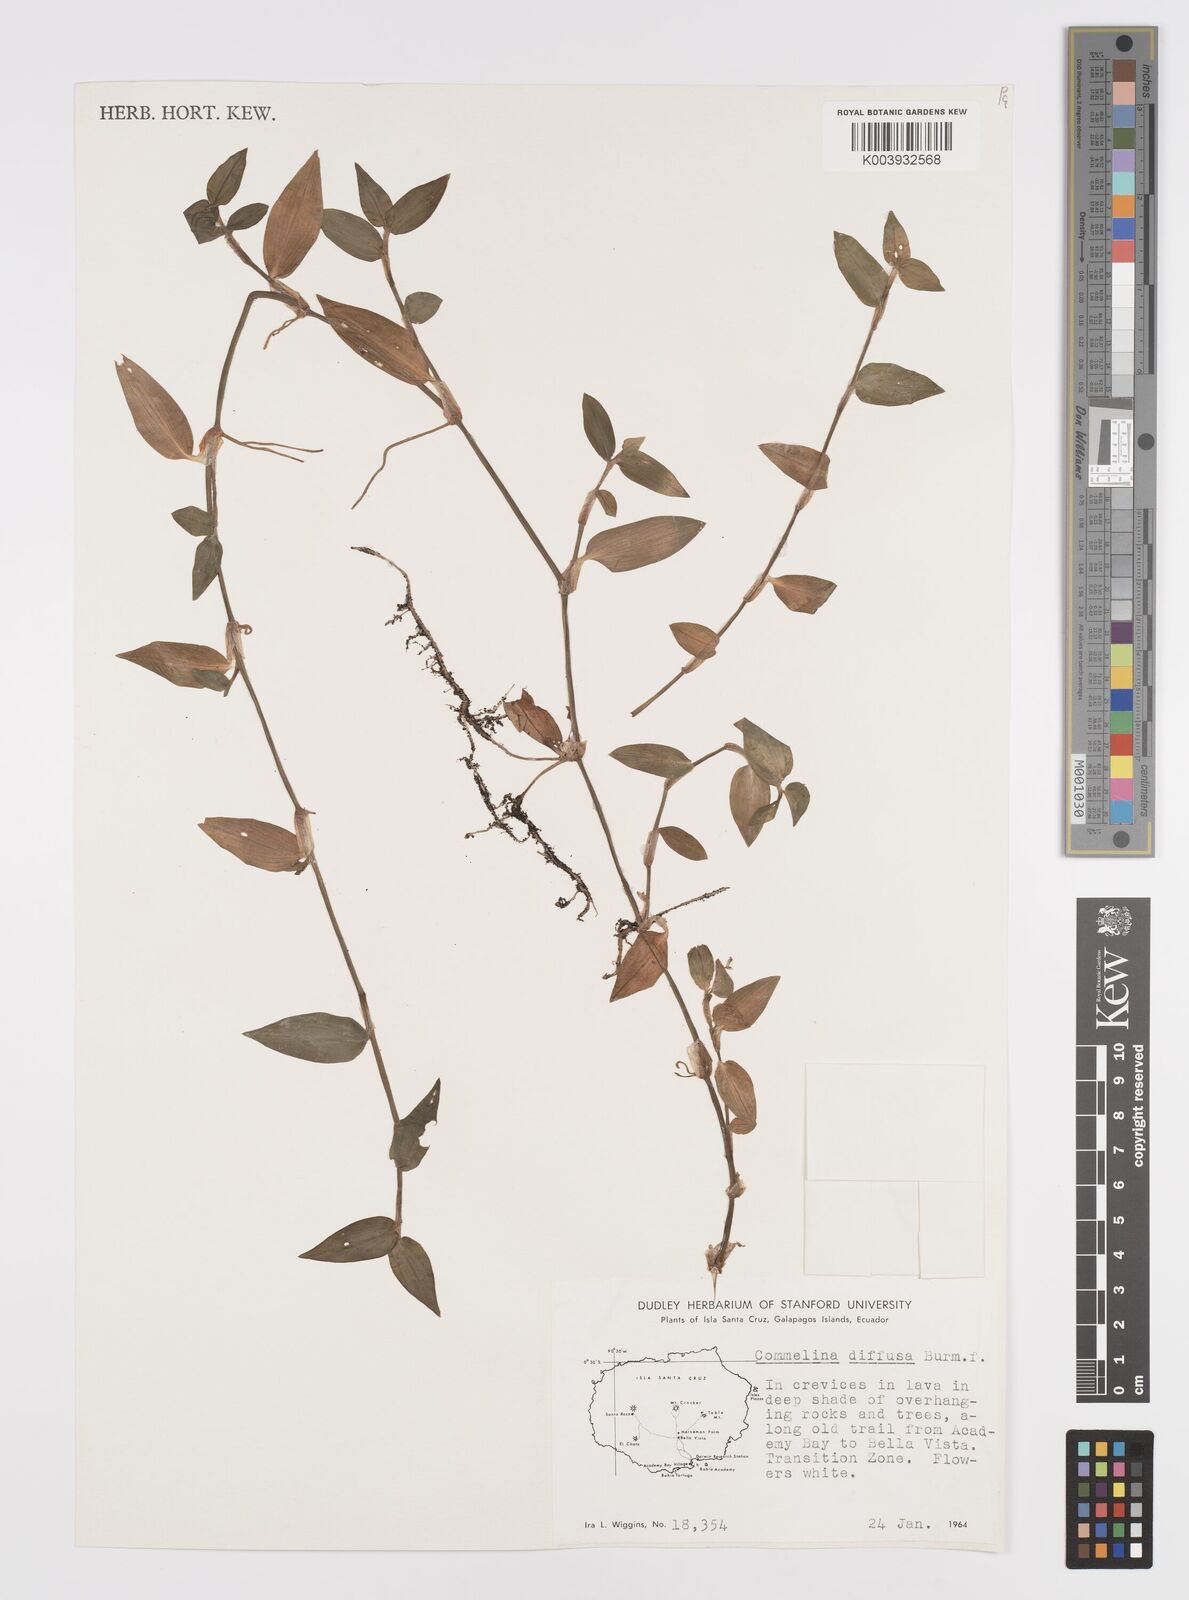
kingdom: Plantae
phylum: Tracheophyta
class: Liliopsida
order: Commelinales
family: Commelinaceae
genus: Commelina
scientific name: Commelina diffusa
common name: Climbing dayflower
